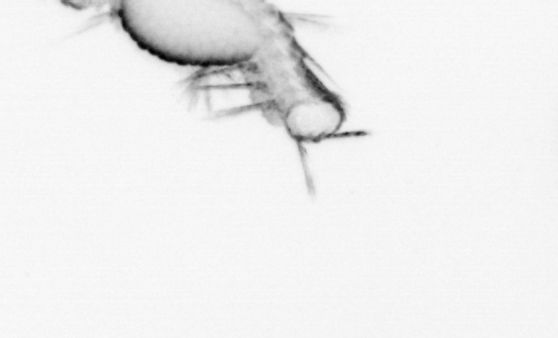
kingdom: Animalia
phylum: Annelida
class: Polychaeta
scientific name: Polychaeta
